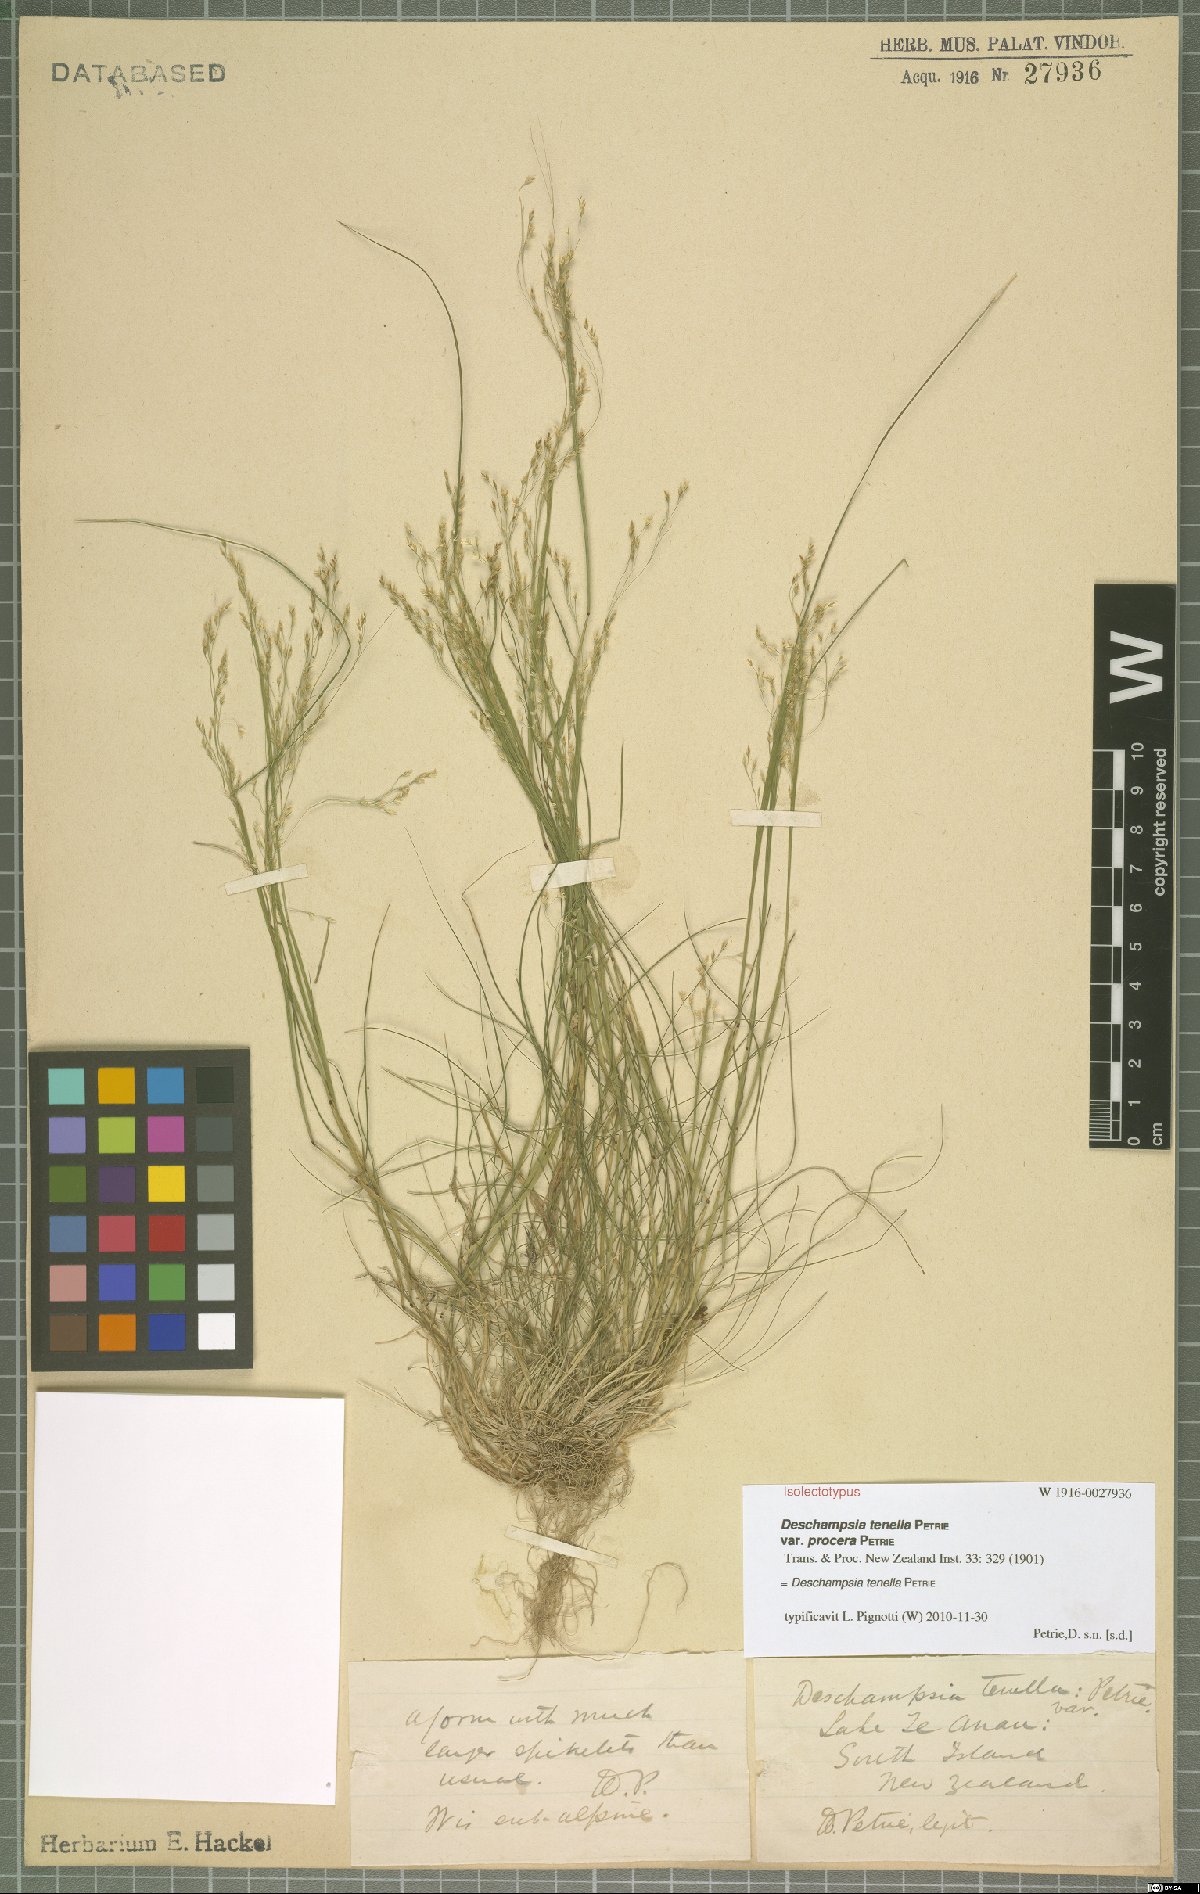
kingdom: Plantae
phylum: Tracheophyta
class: Liliopsida
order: Poales
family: Poaceae
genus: Deschampsia
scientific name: Deschampsia tenella
